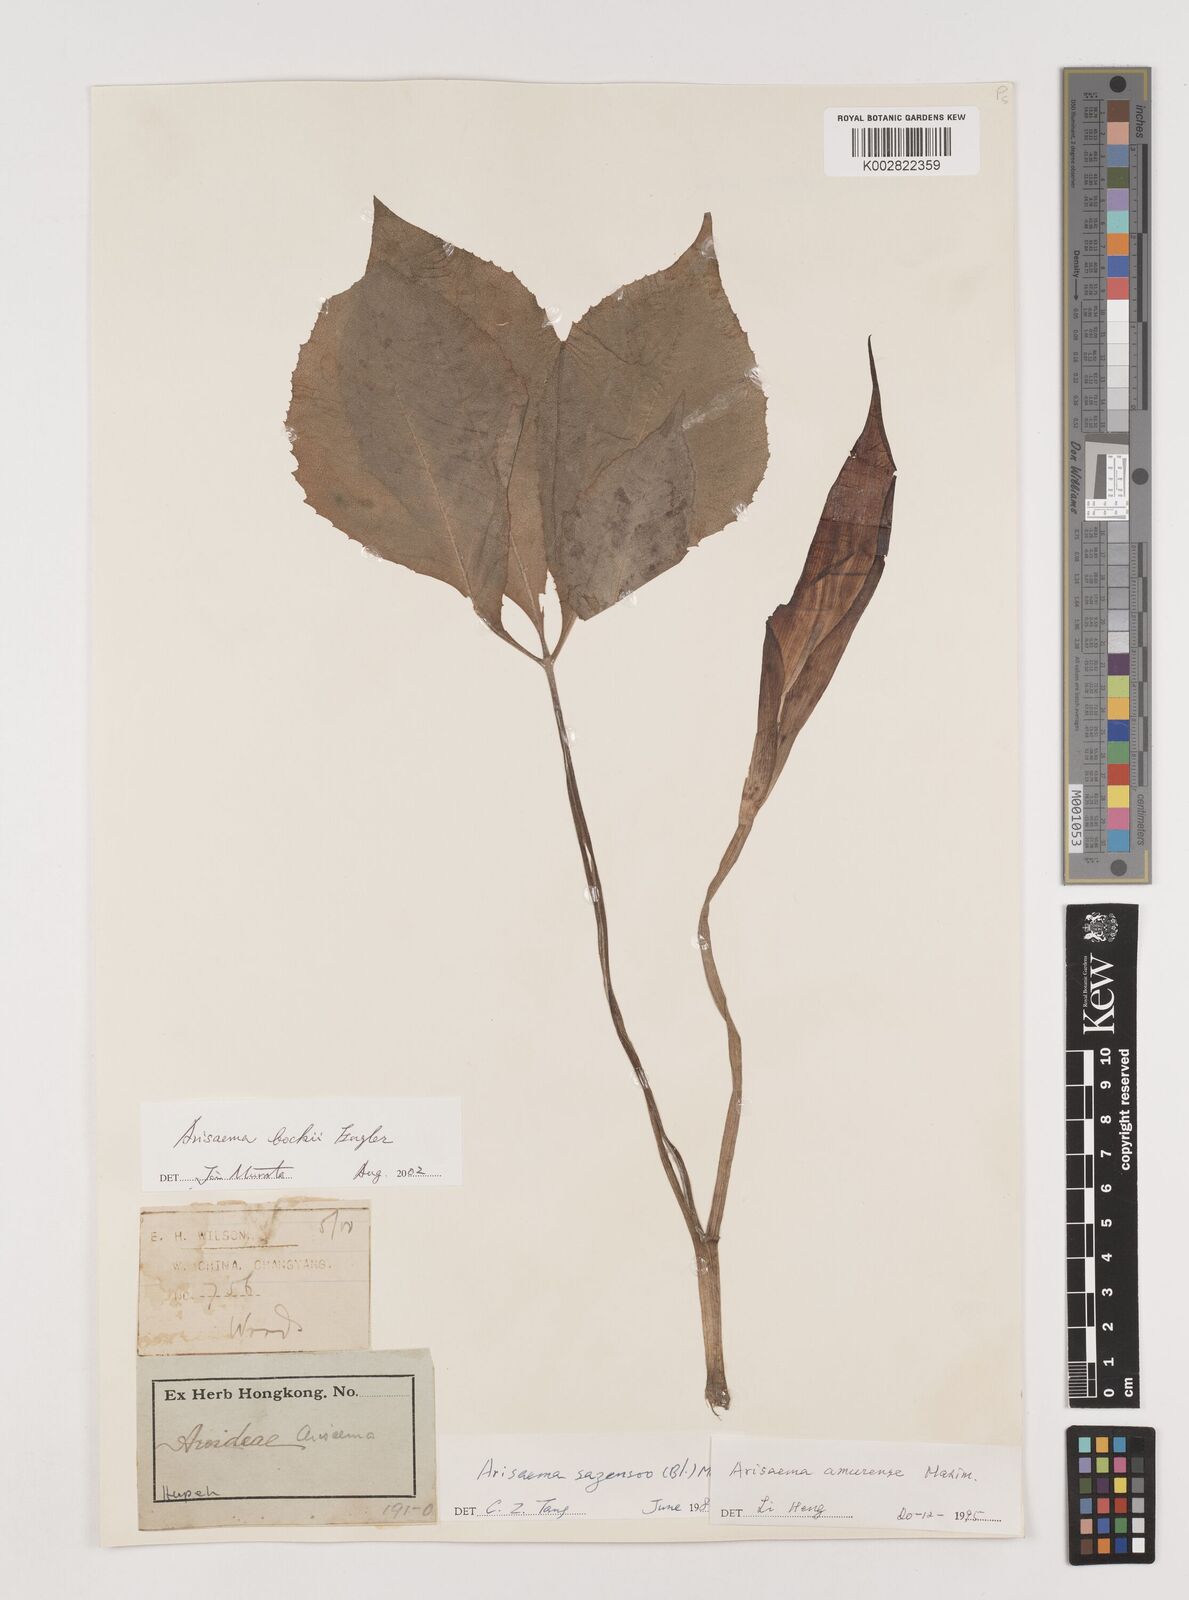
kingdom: Plantae
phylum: Tracheophyta
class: Liliopsida
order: Alismatales
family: Araceae
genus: Arisaema
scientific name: Arisaema bockii
